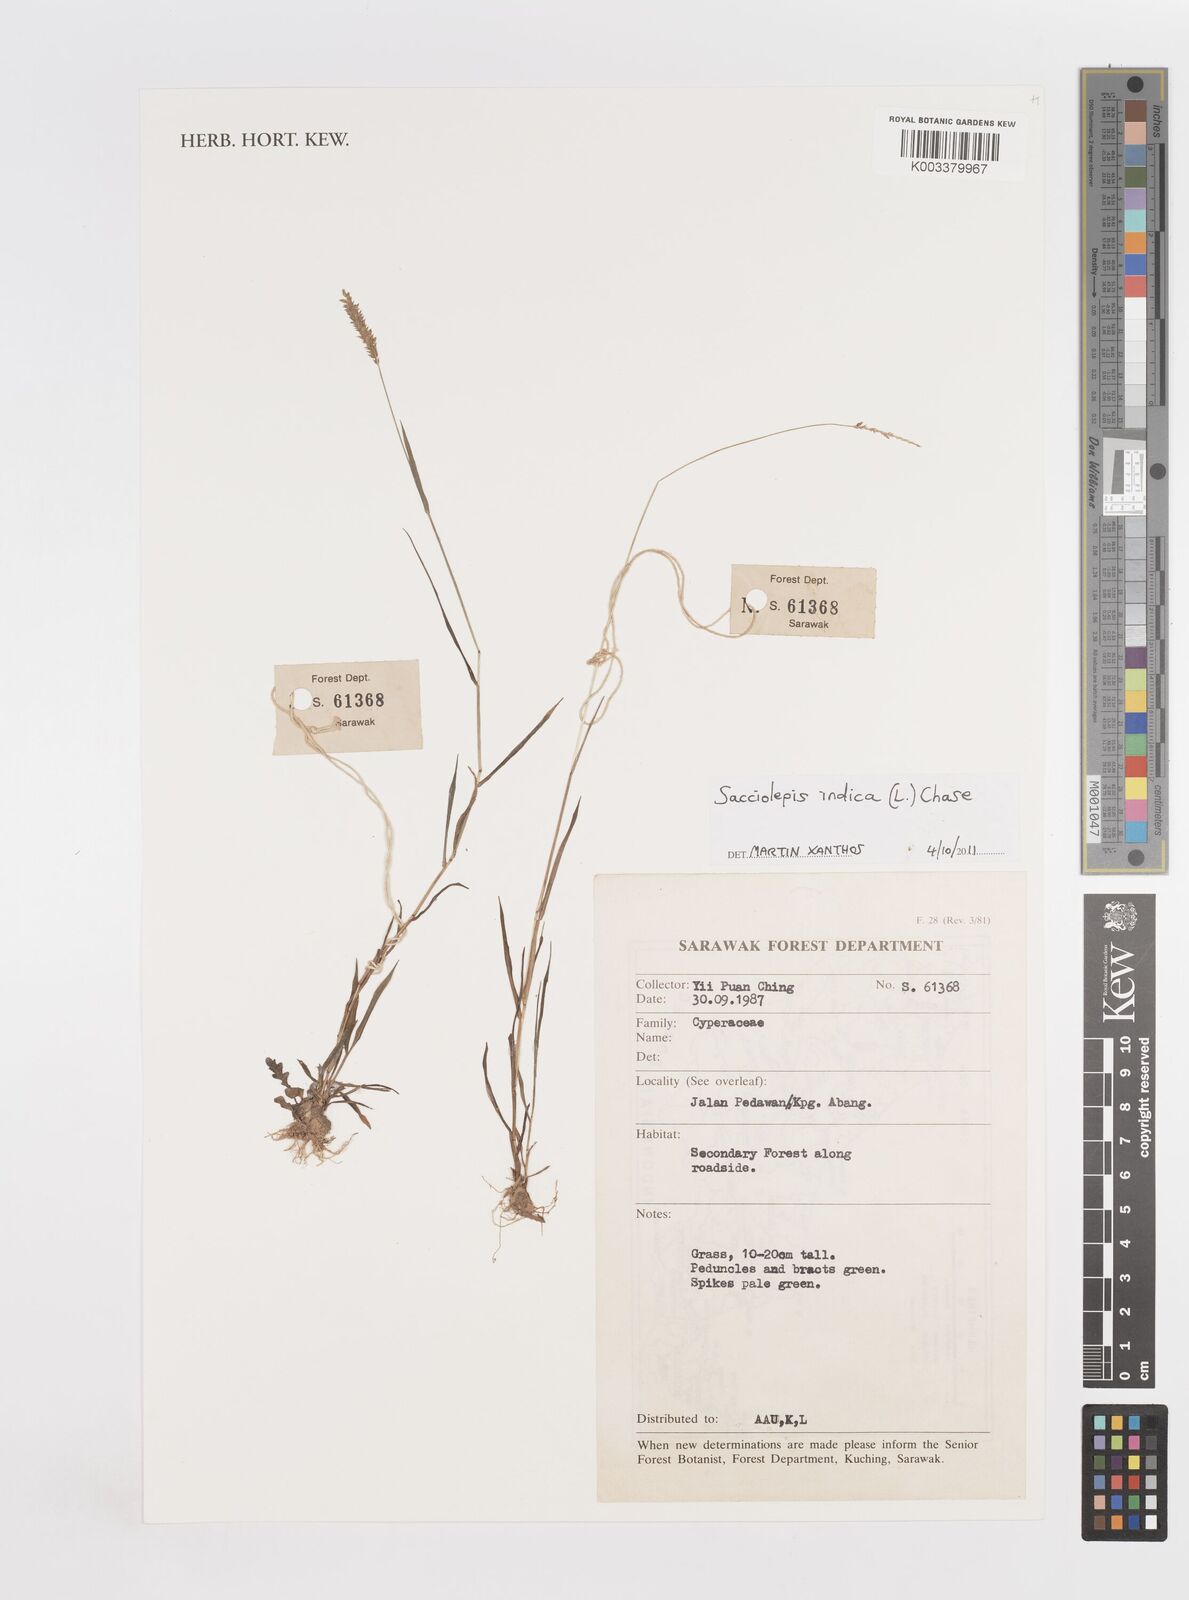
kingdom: Plantae
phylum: Tracheophyta
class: Liliopsida
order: Poales
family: Poaceae
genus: Sacciolepis
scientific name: Sacciolepis indica
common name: Glenwoodgrass
